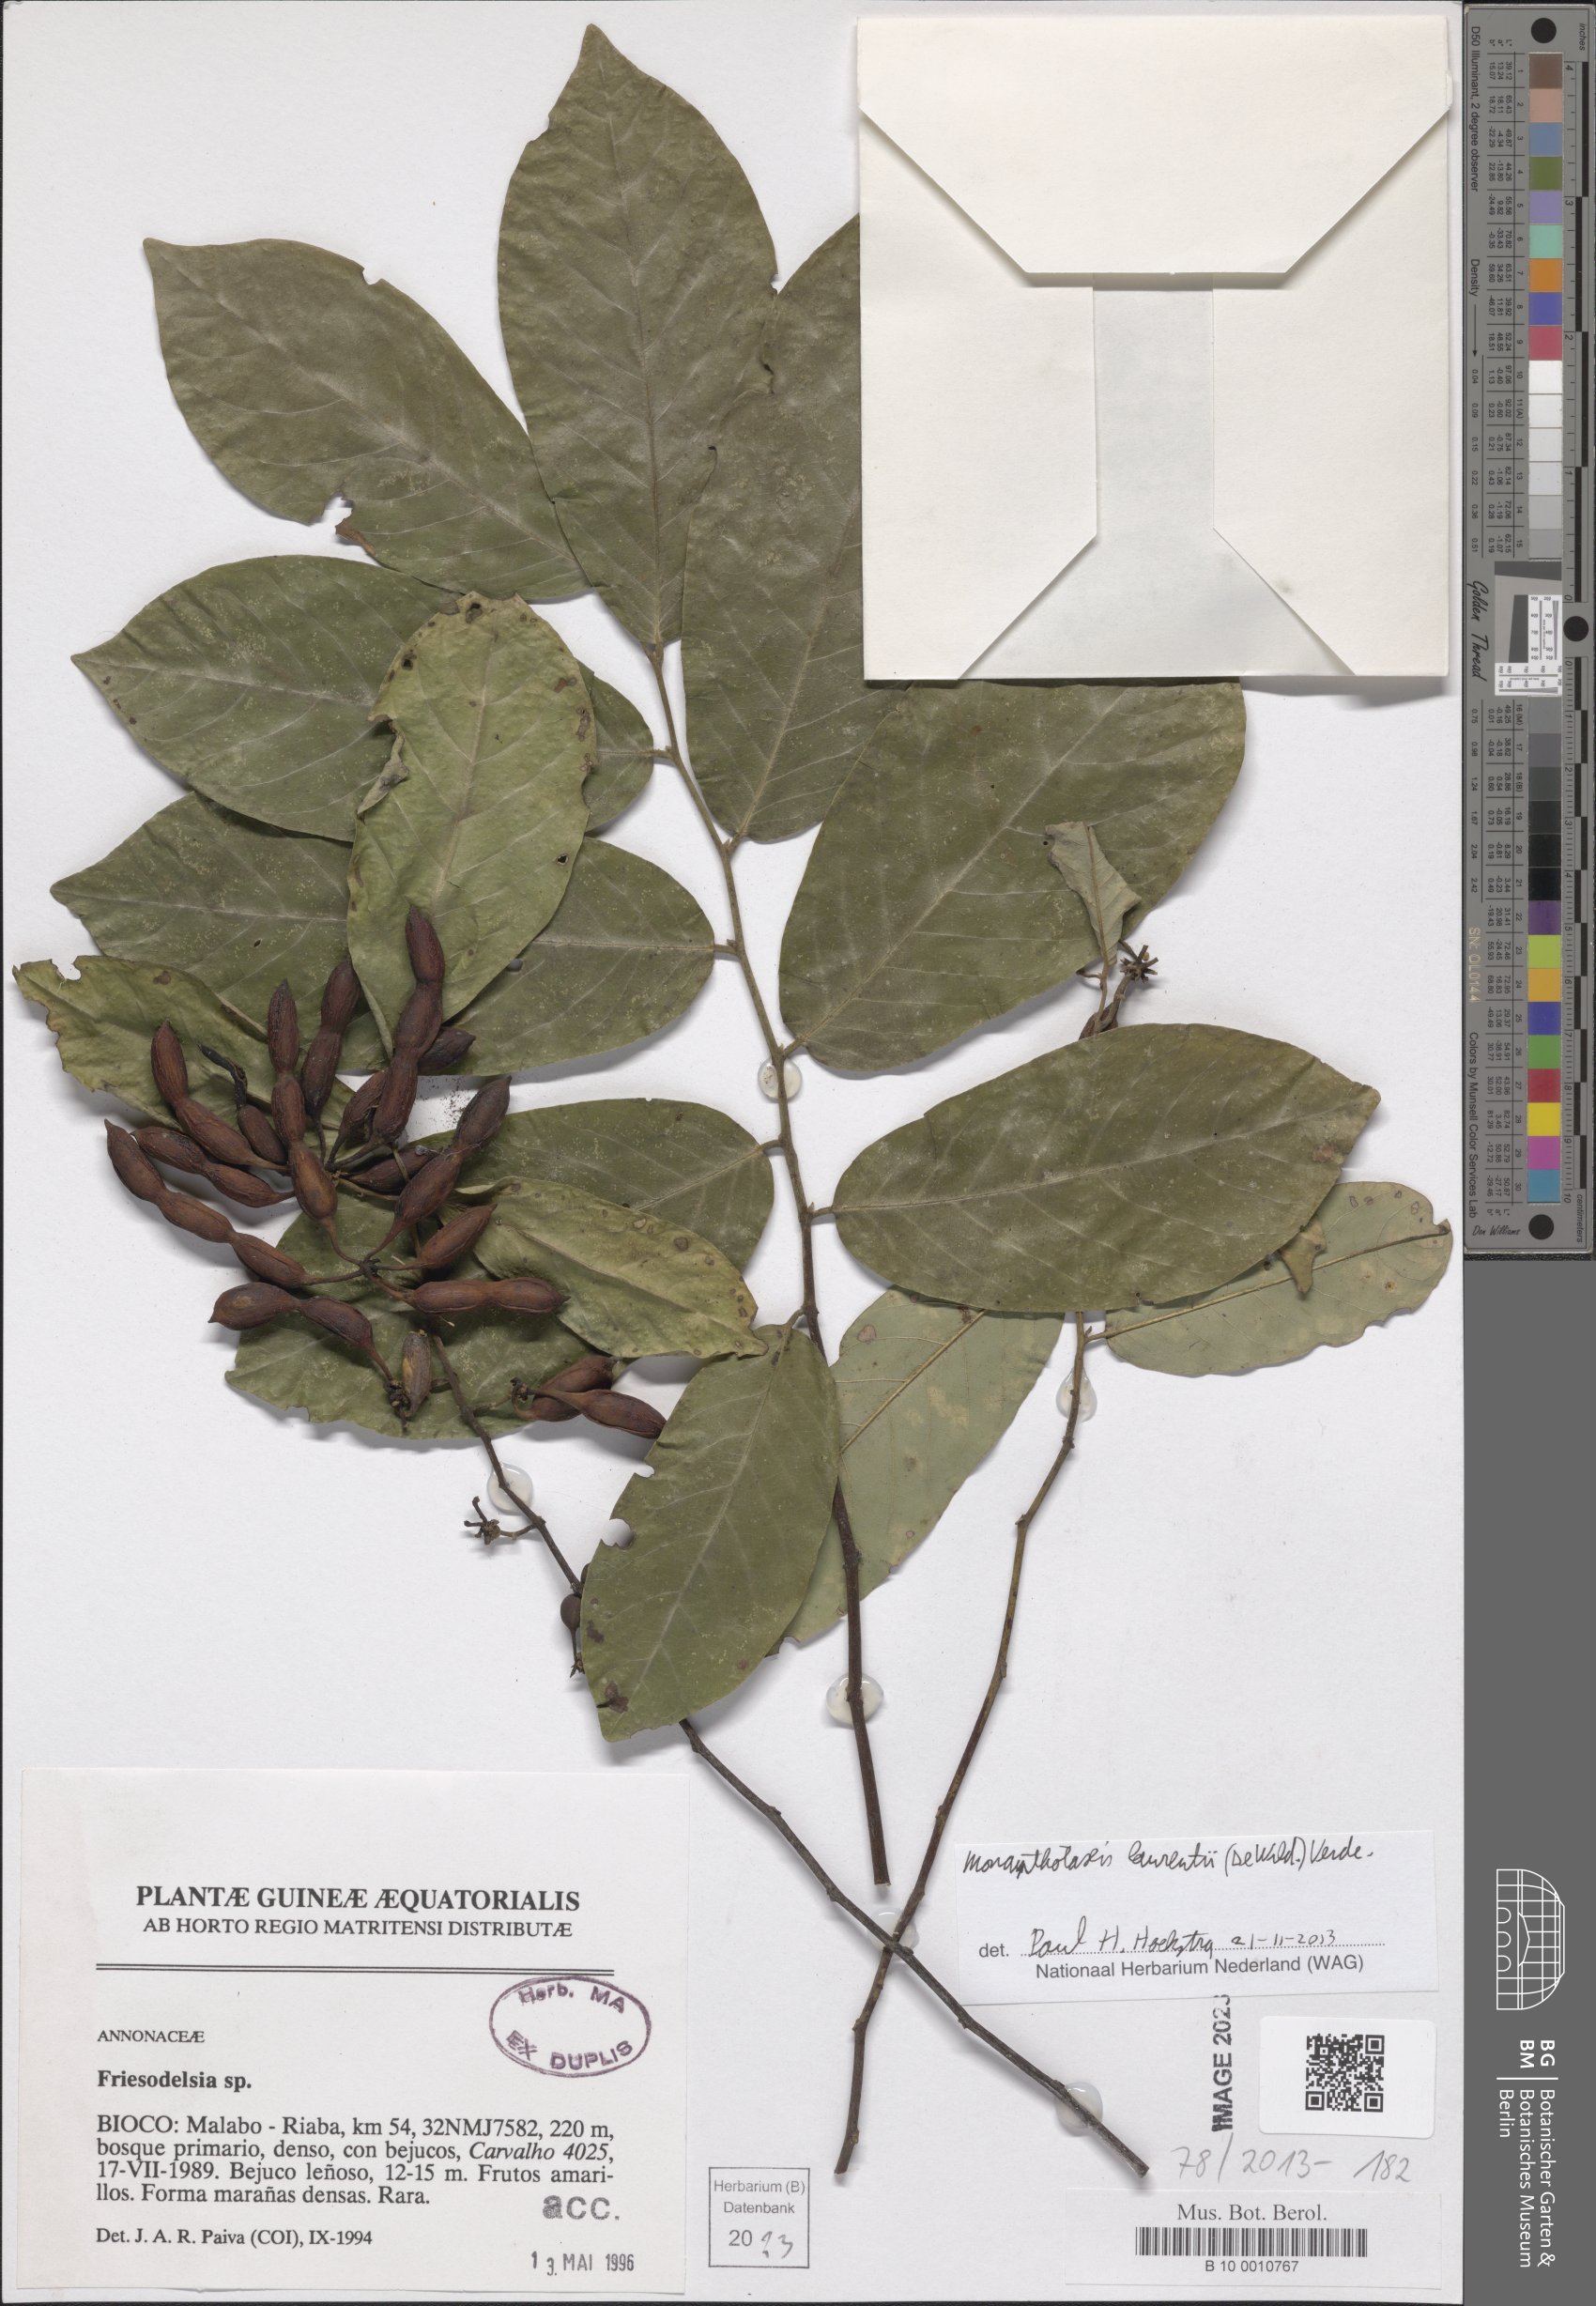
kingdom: Plantae
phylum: Tracheophyta
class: Magnoliopsida
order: Magnoliales
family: Annonaceae
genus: Monanthotaxis
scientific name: Monanthotaxis laurentii
